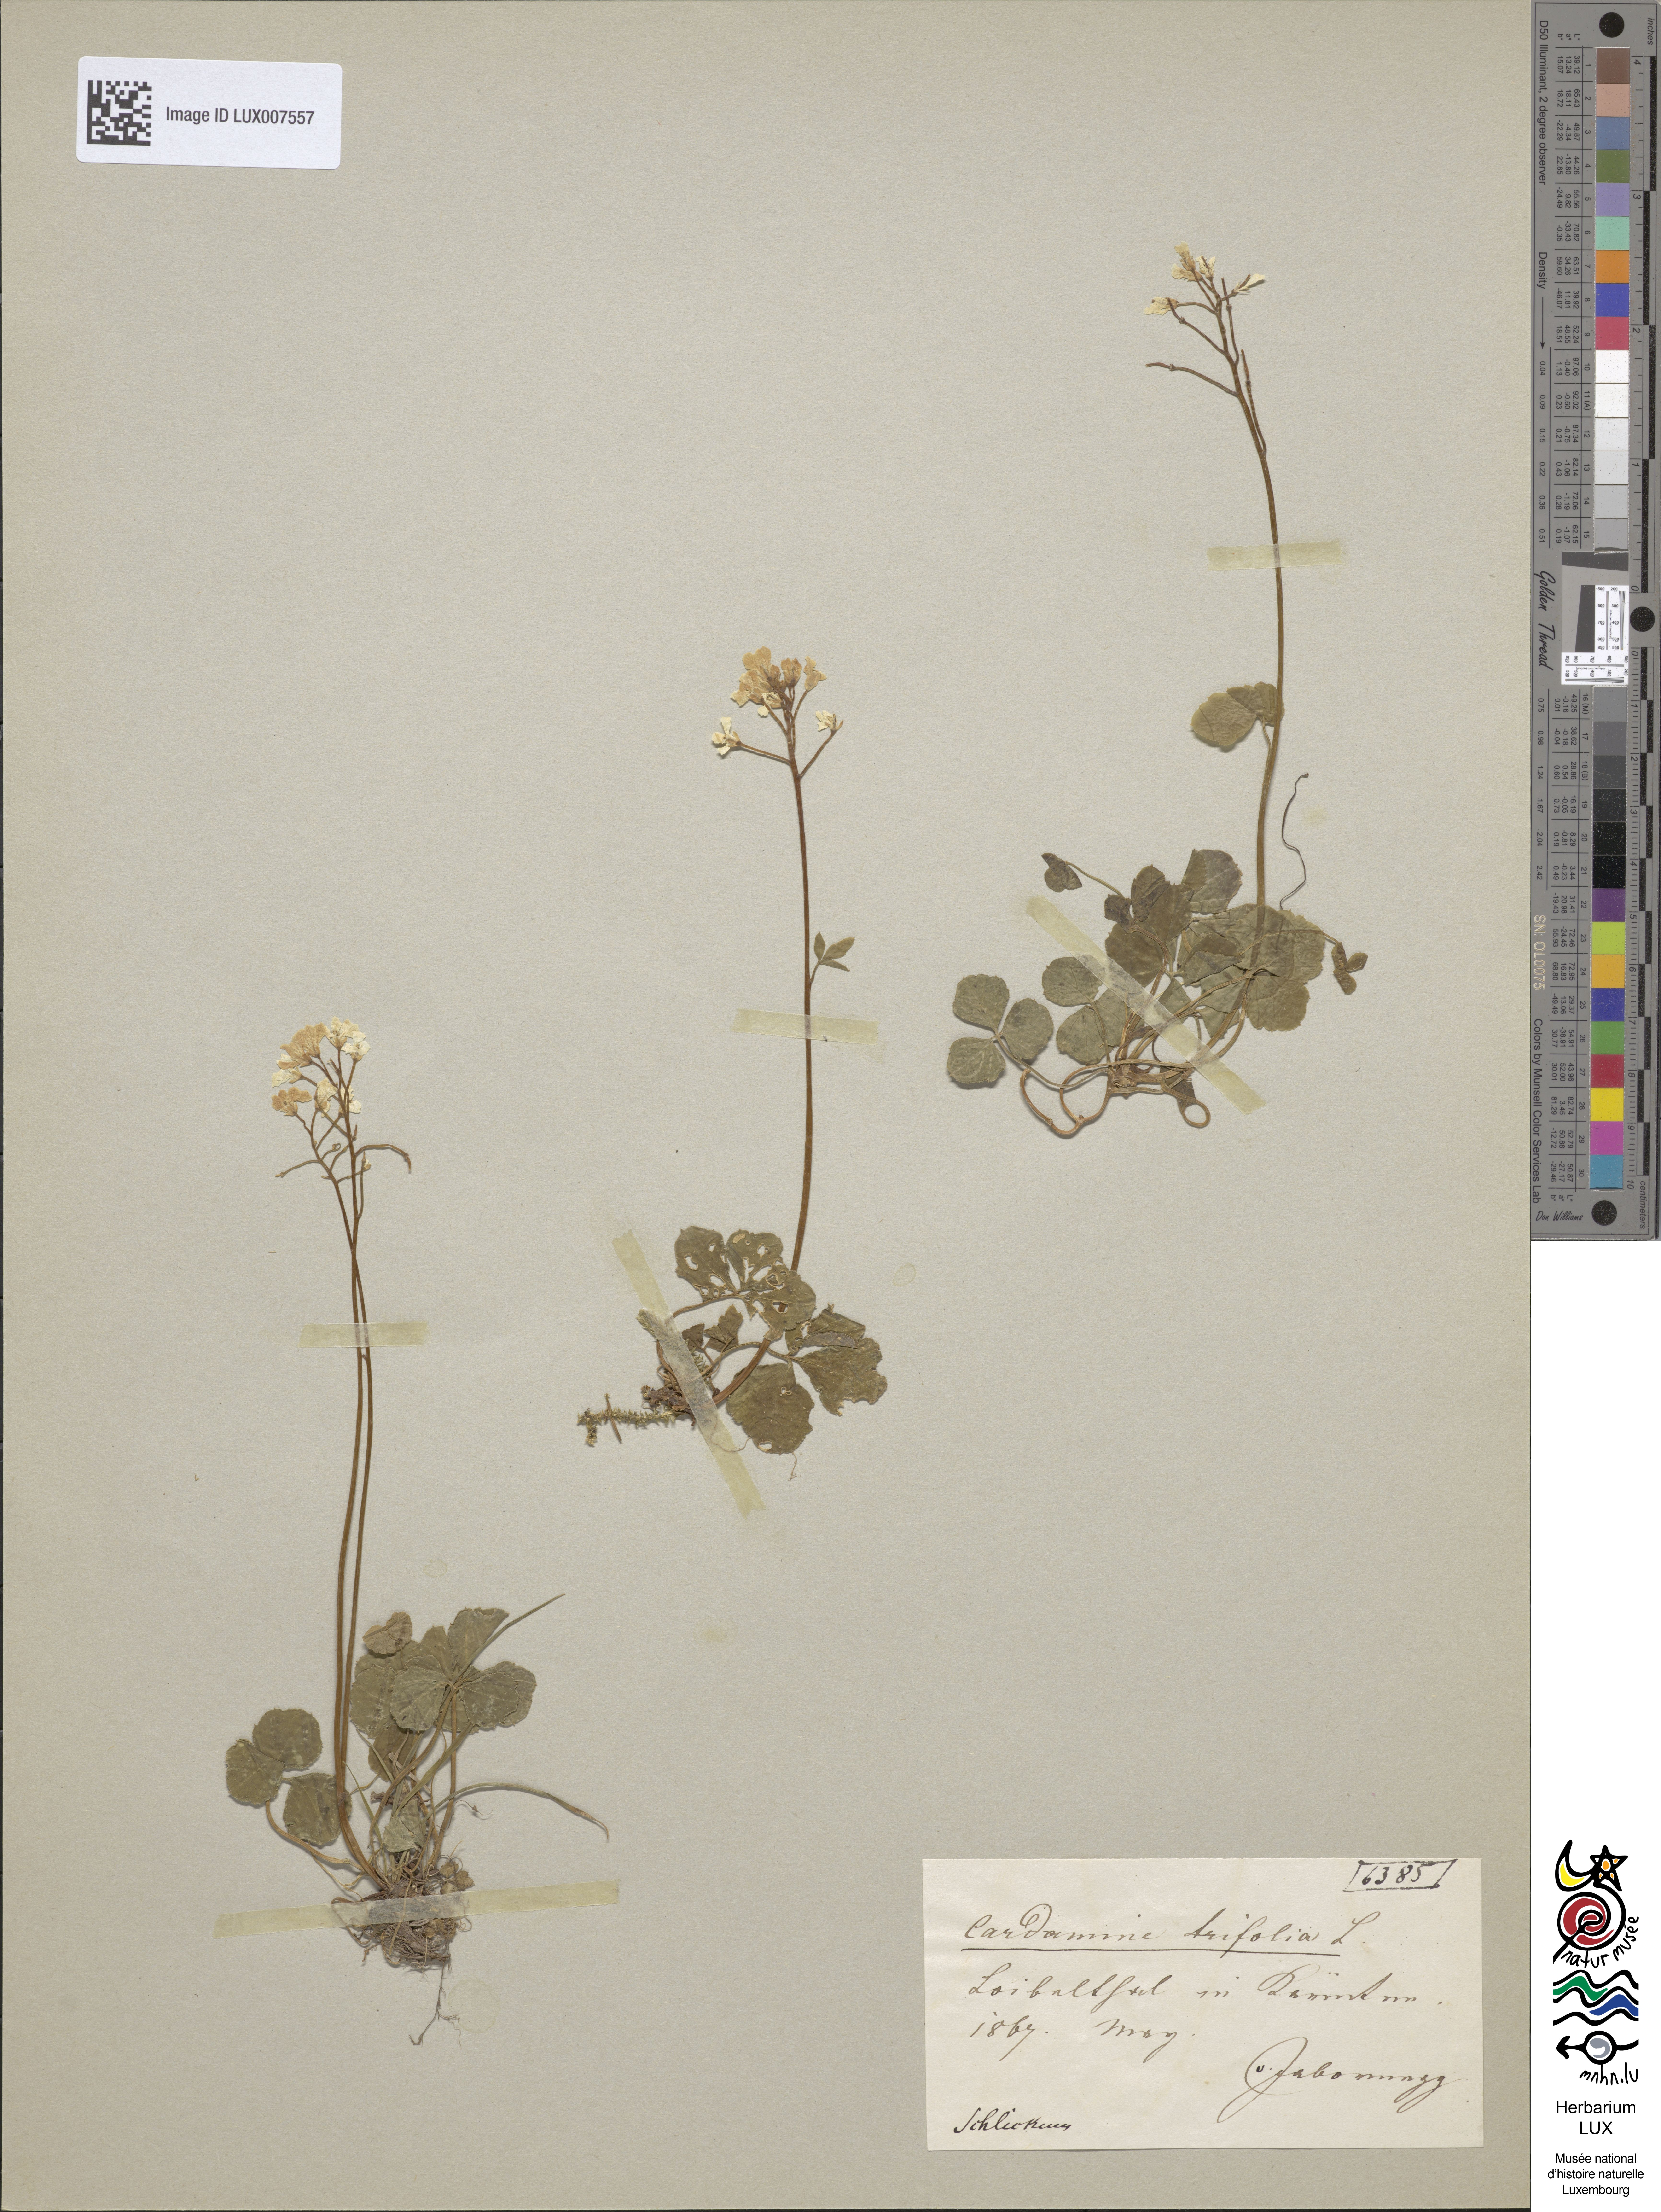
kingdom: Plantae
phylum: Tracheophyta
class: Magnoliopsida
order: Brassicales
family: Brassicaceae
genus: Cardamine
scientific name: Cardamine trifolia
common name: Trefoil cress
